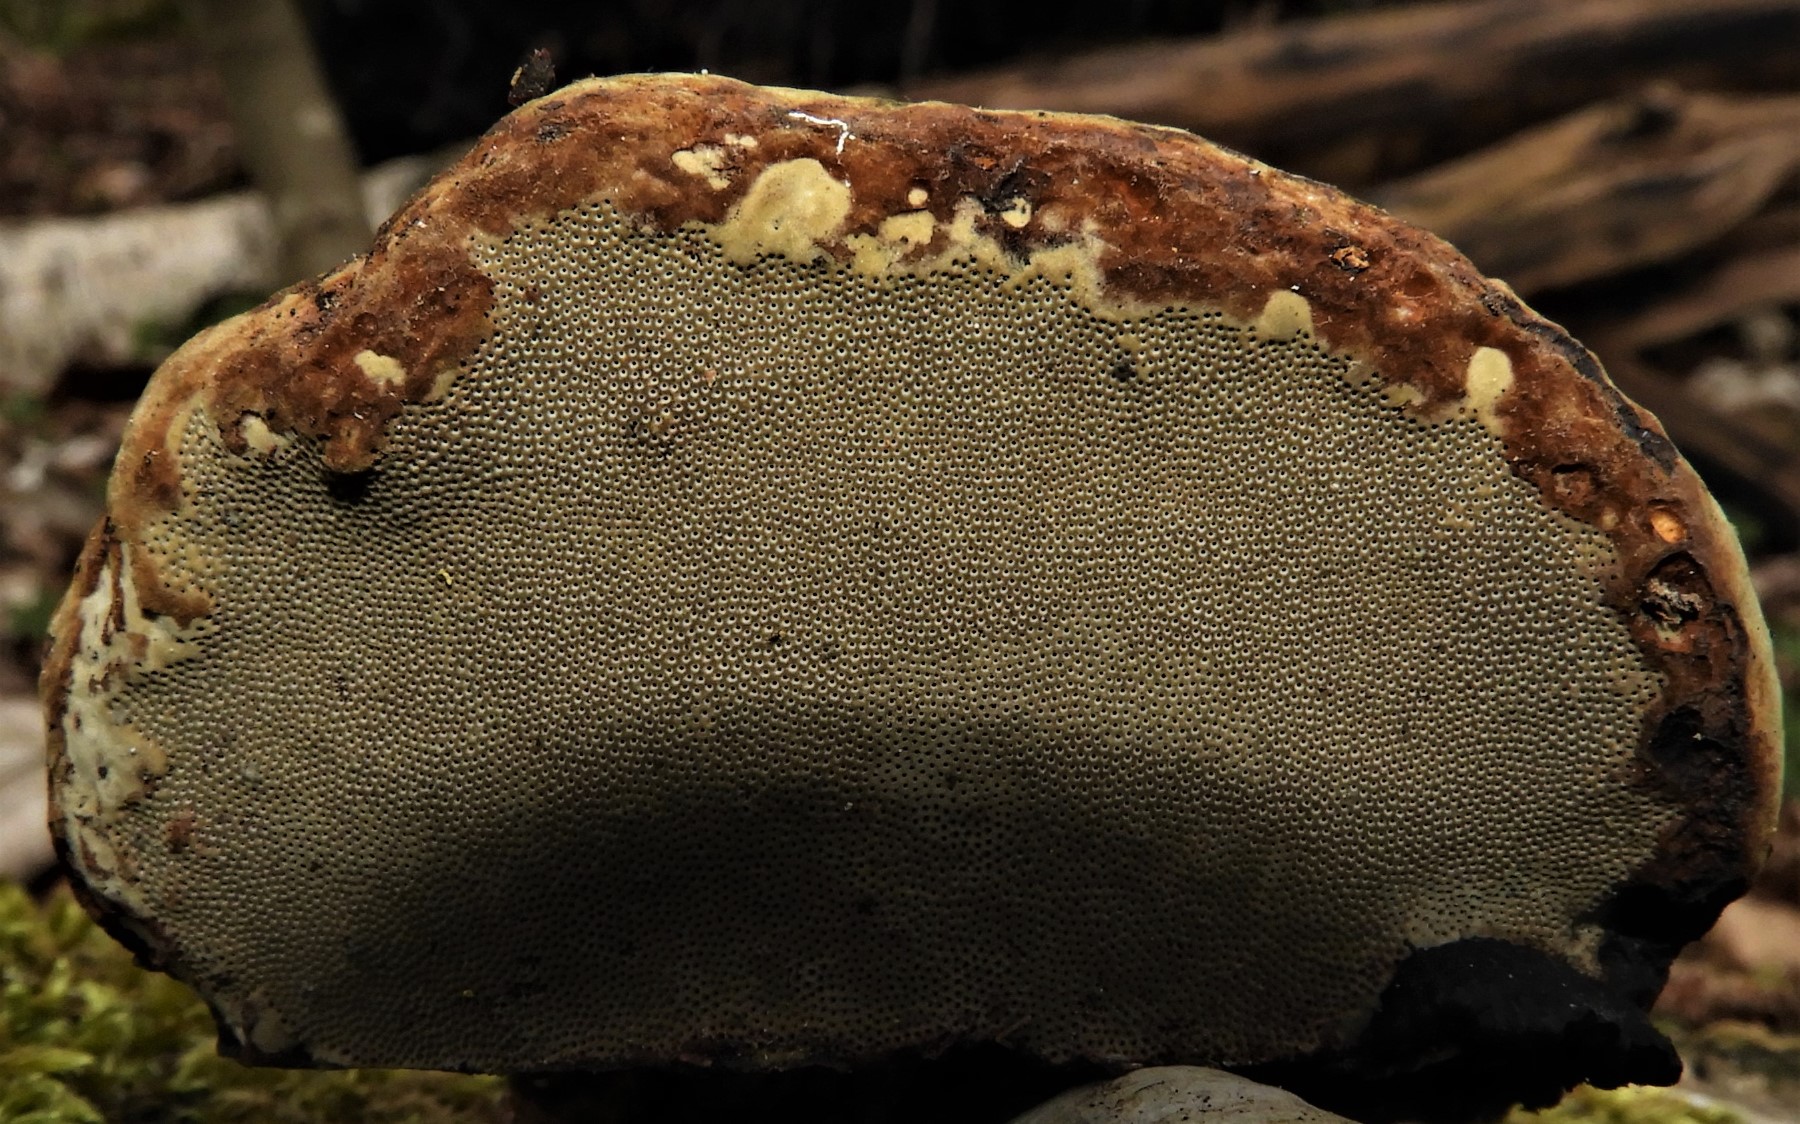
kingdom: Fungi
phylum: Basidiomycota
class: Agaricomycetes
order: Polyporales
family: Polyporaceae
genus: Fomes
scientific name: Fomes fomentarius
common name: tøndersvamp
